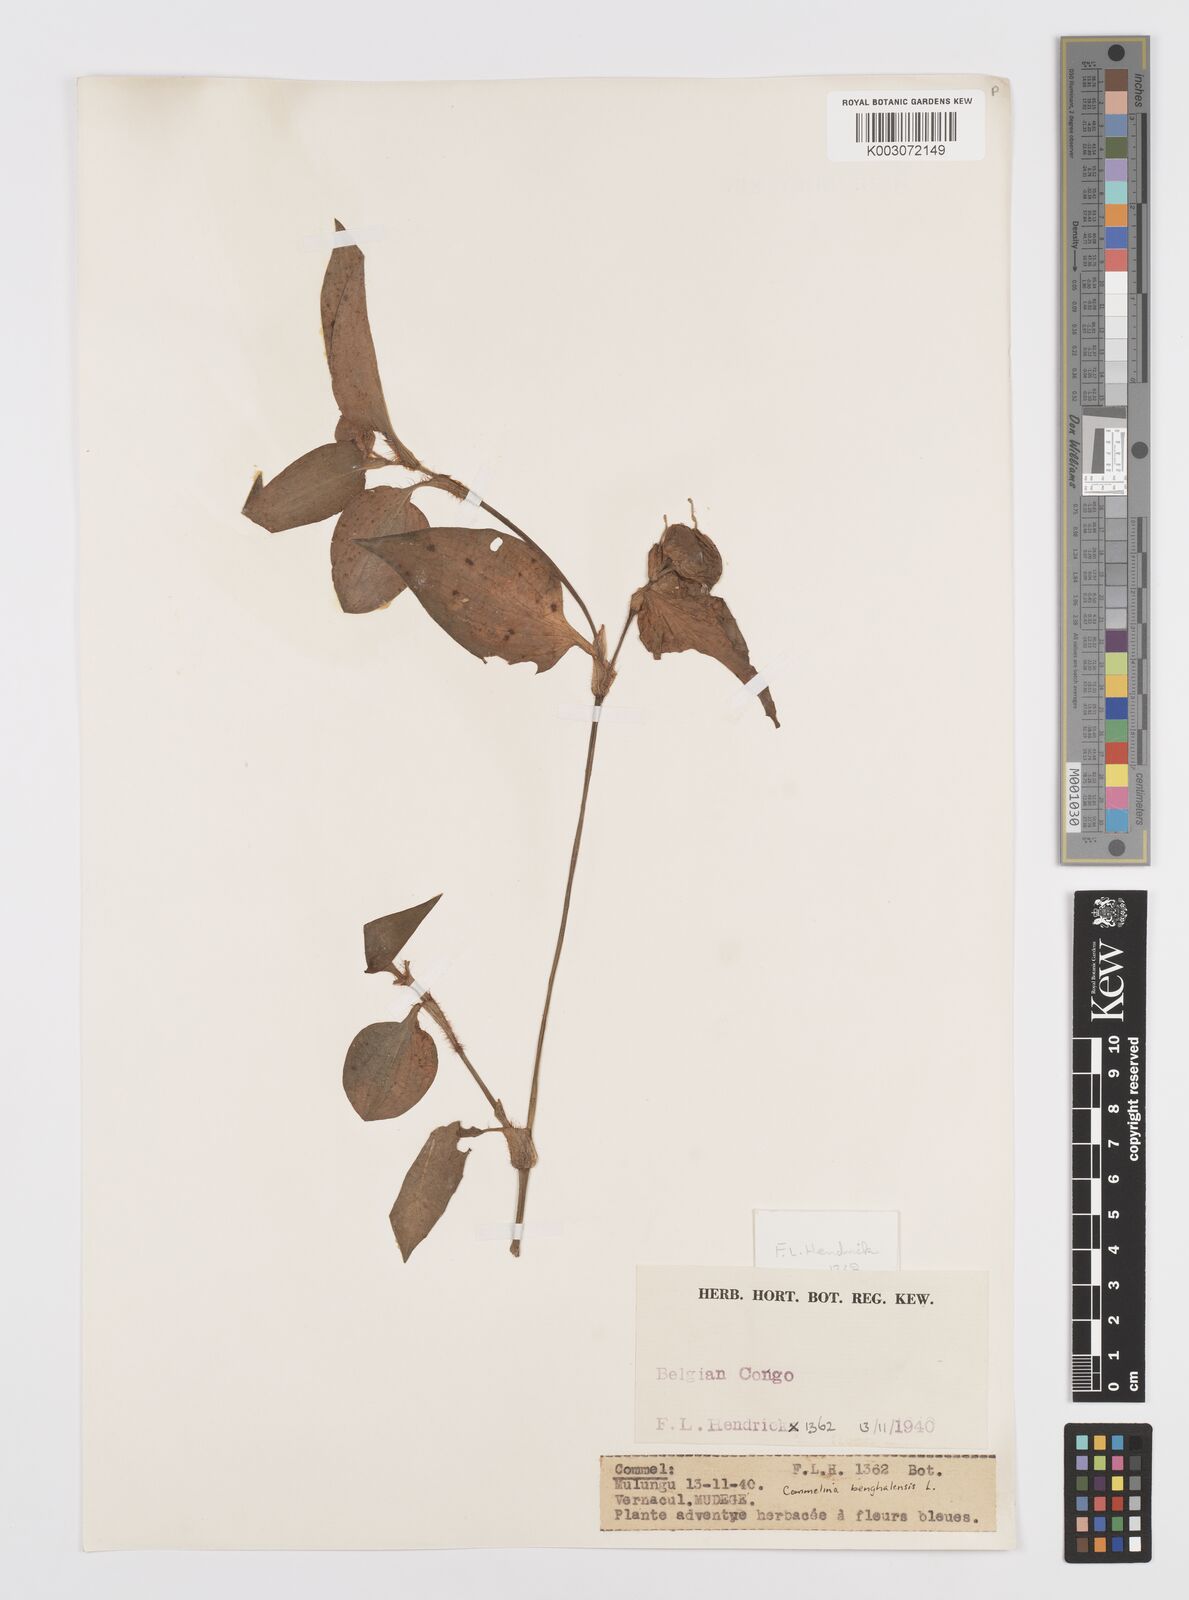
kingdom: Plantae
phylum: Tracheophyta
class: Liliopsida
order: Commelinales
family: Commelinaceae
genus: Commelina
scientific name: Commelina benghalensis
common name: Jio
